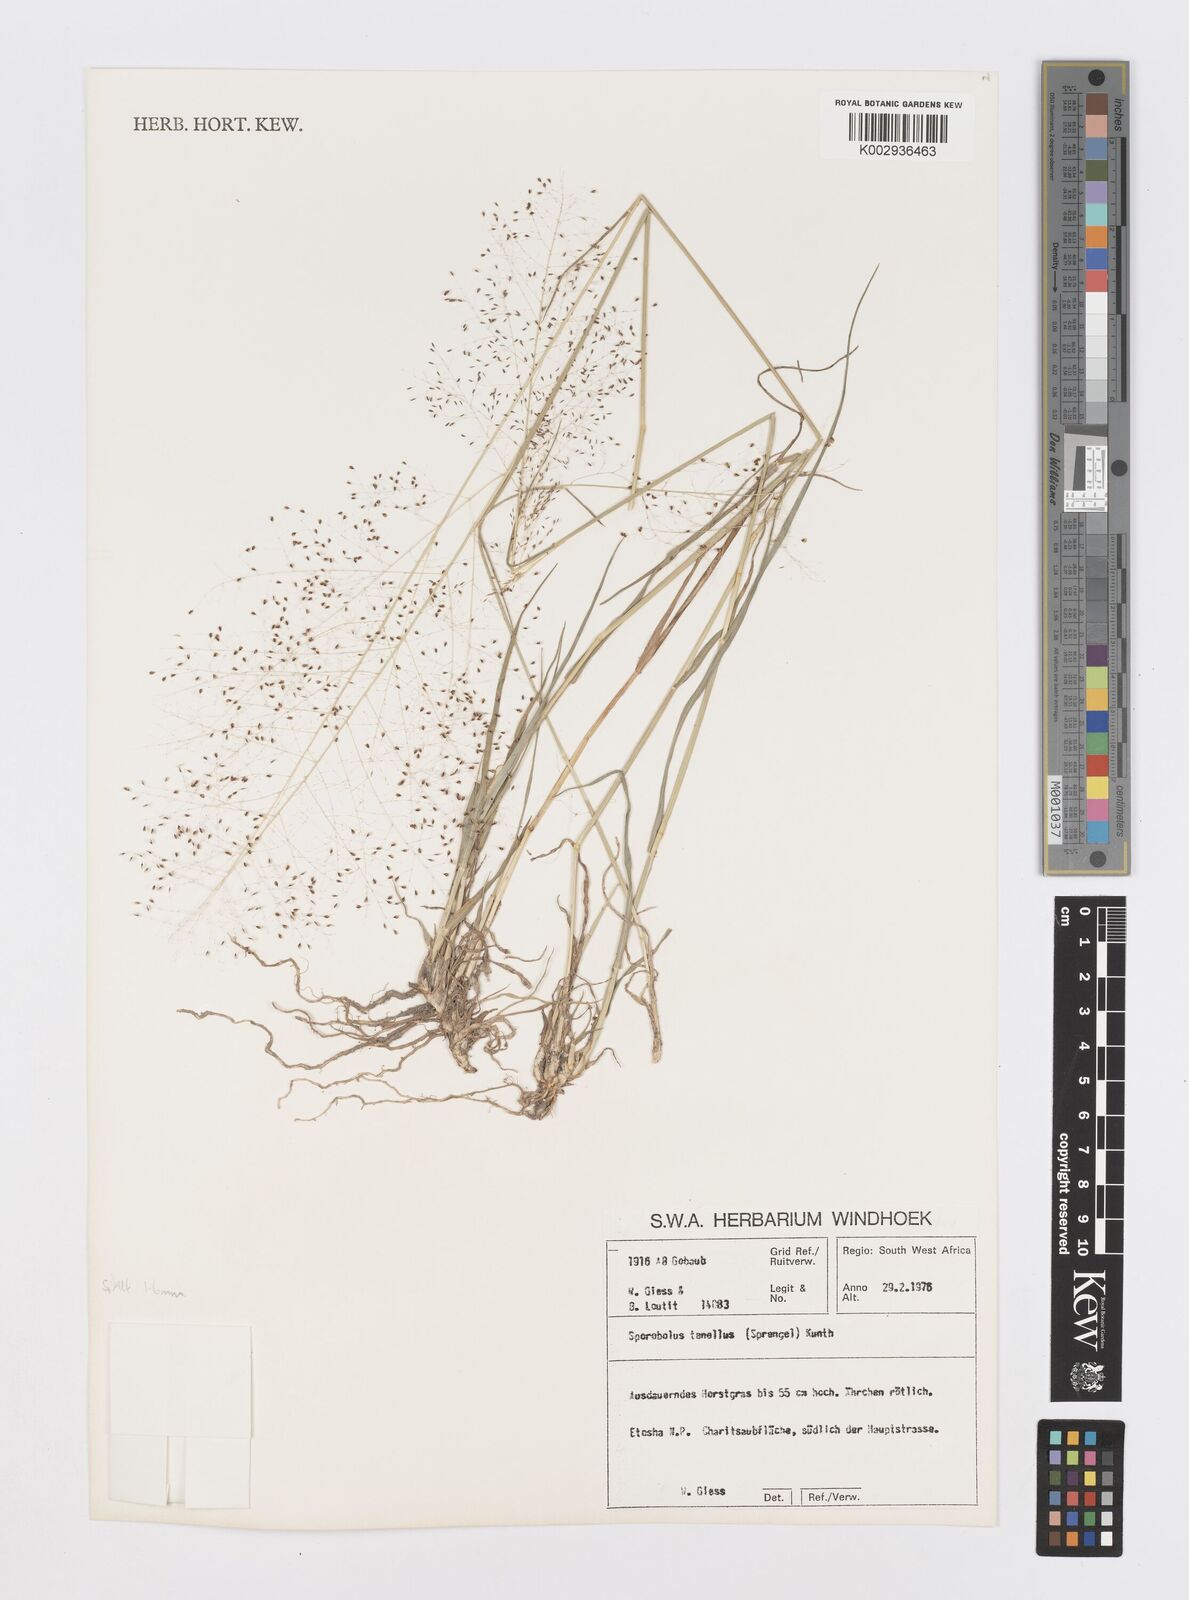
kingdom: Plantae
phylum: Tracheophyta
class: Liliopsida
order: Poales
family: Poaceae
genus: Sporobolus
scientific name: Sporobolus acinifolius
